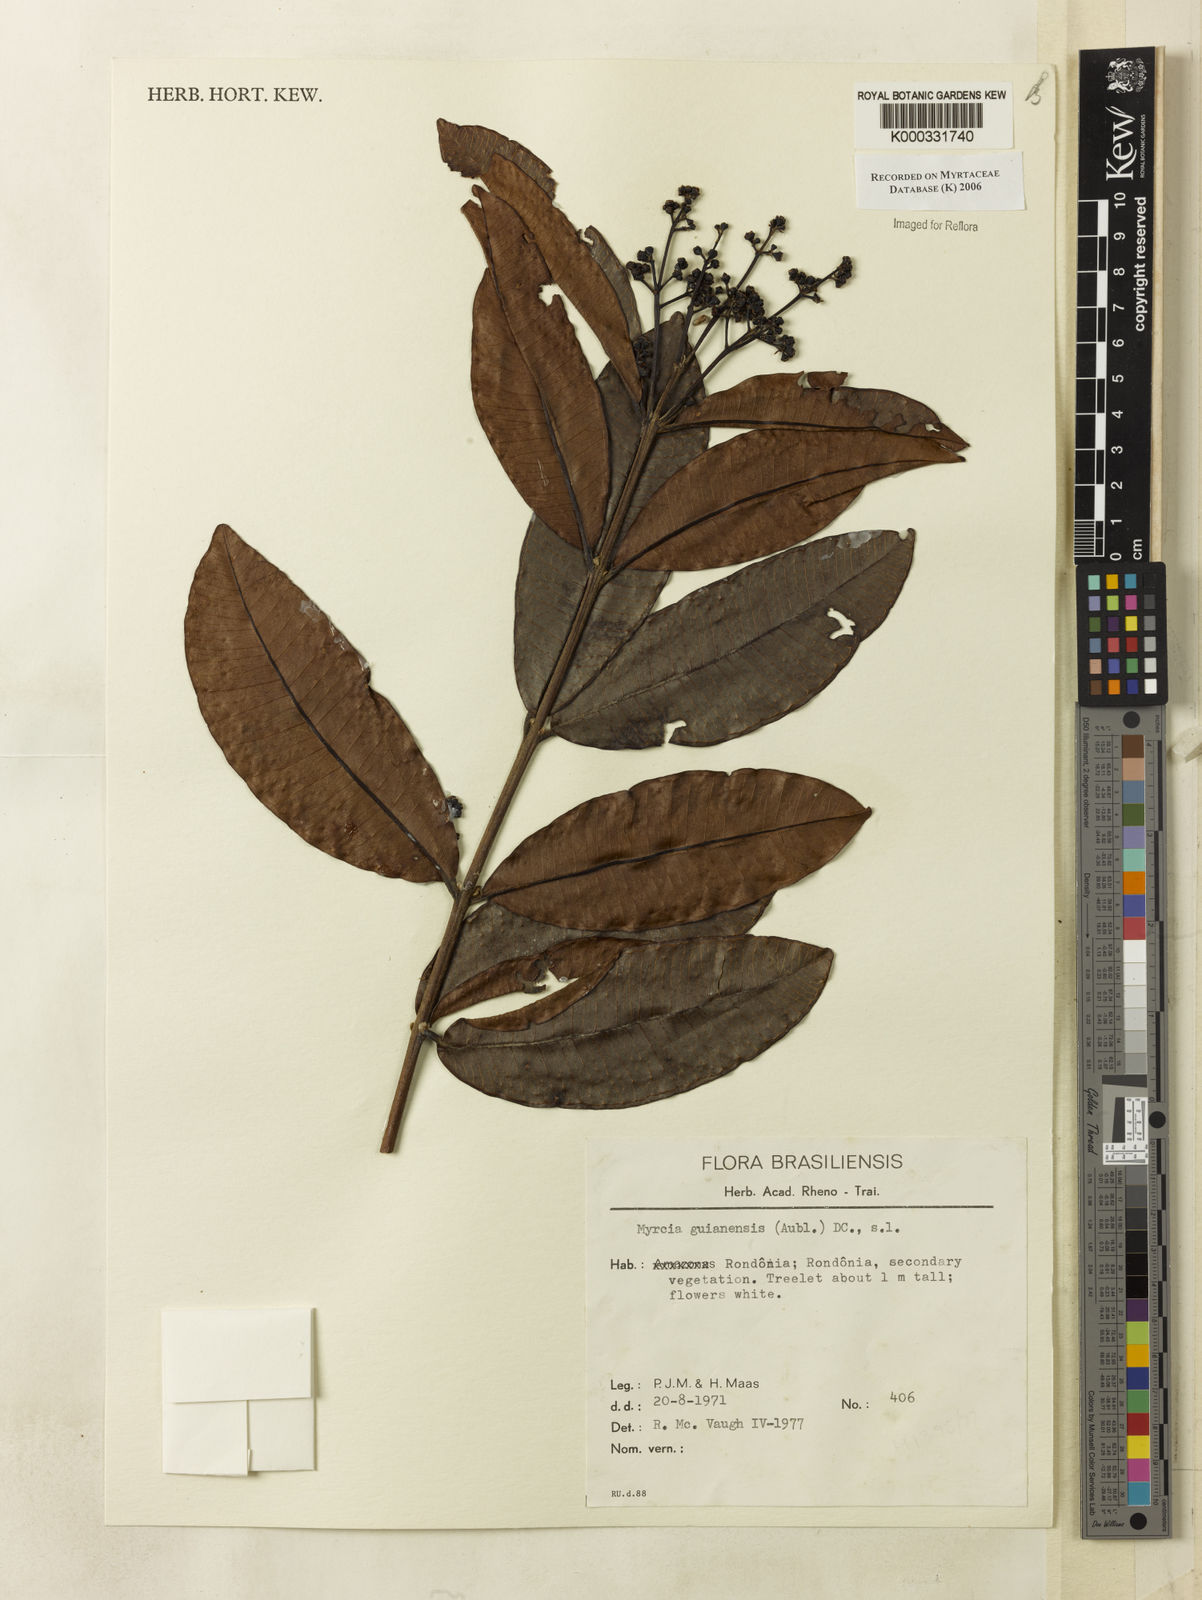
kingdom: Plantae
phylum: Tracheophyta
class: Magnoliopsida
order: Myrtales
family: Myrtaceae
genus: Myrcia
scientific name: Myrcia guianensis
